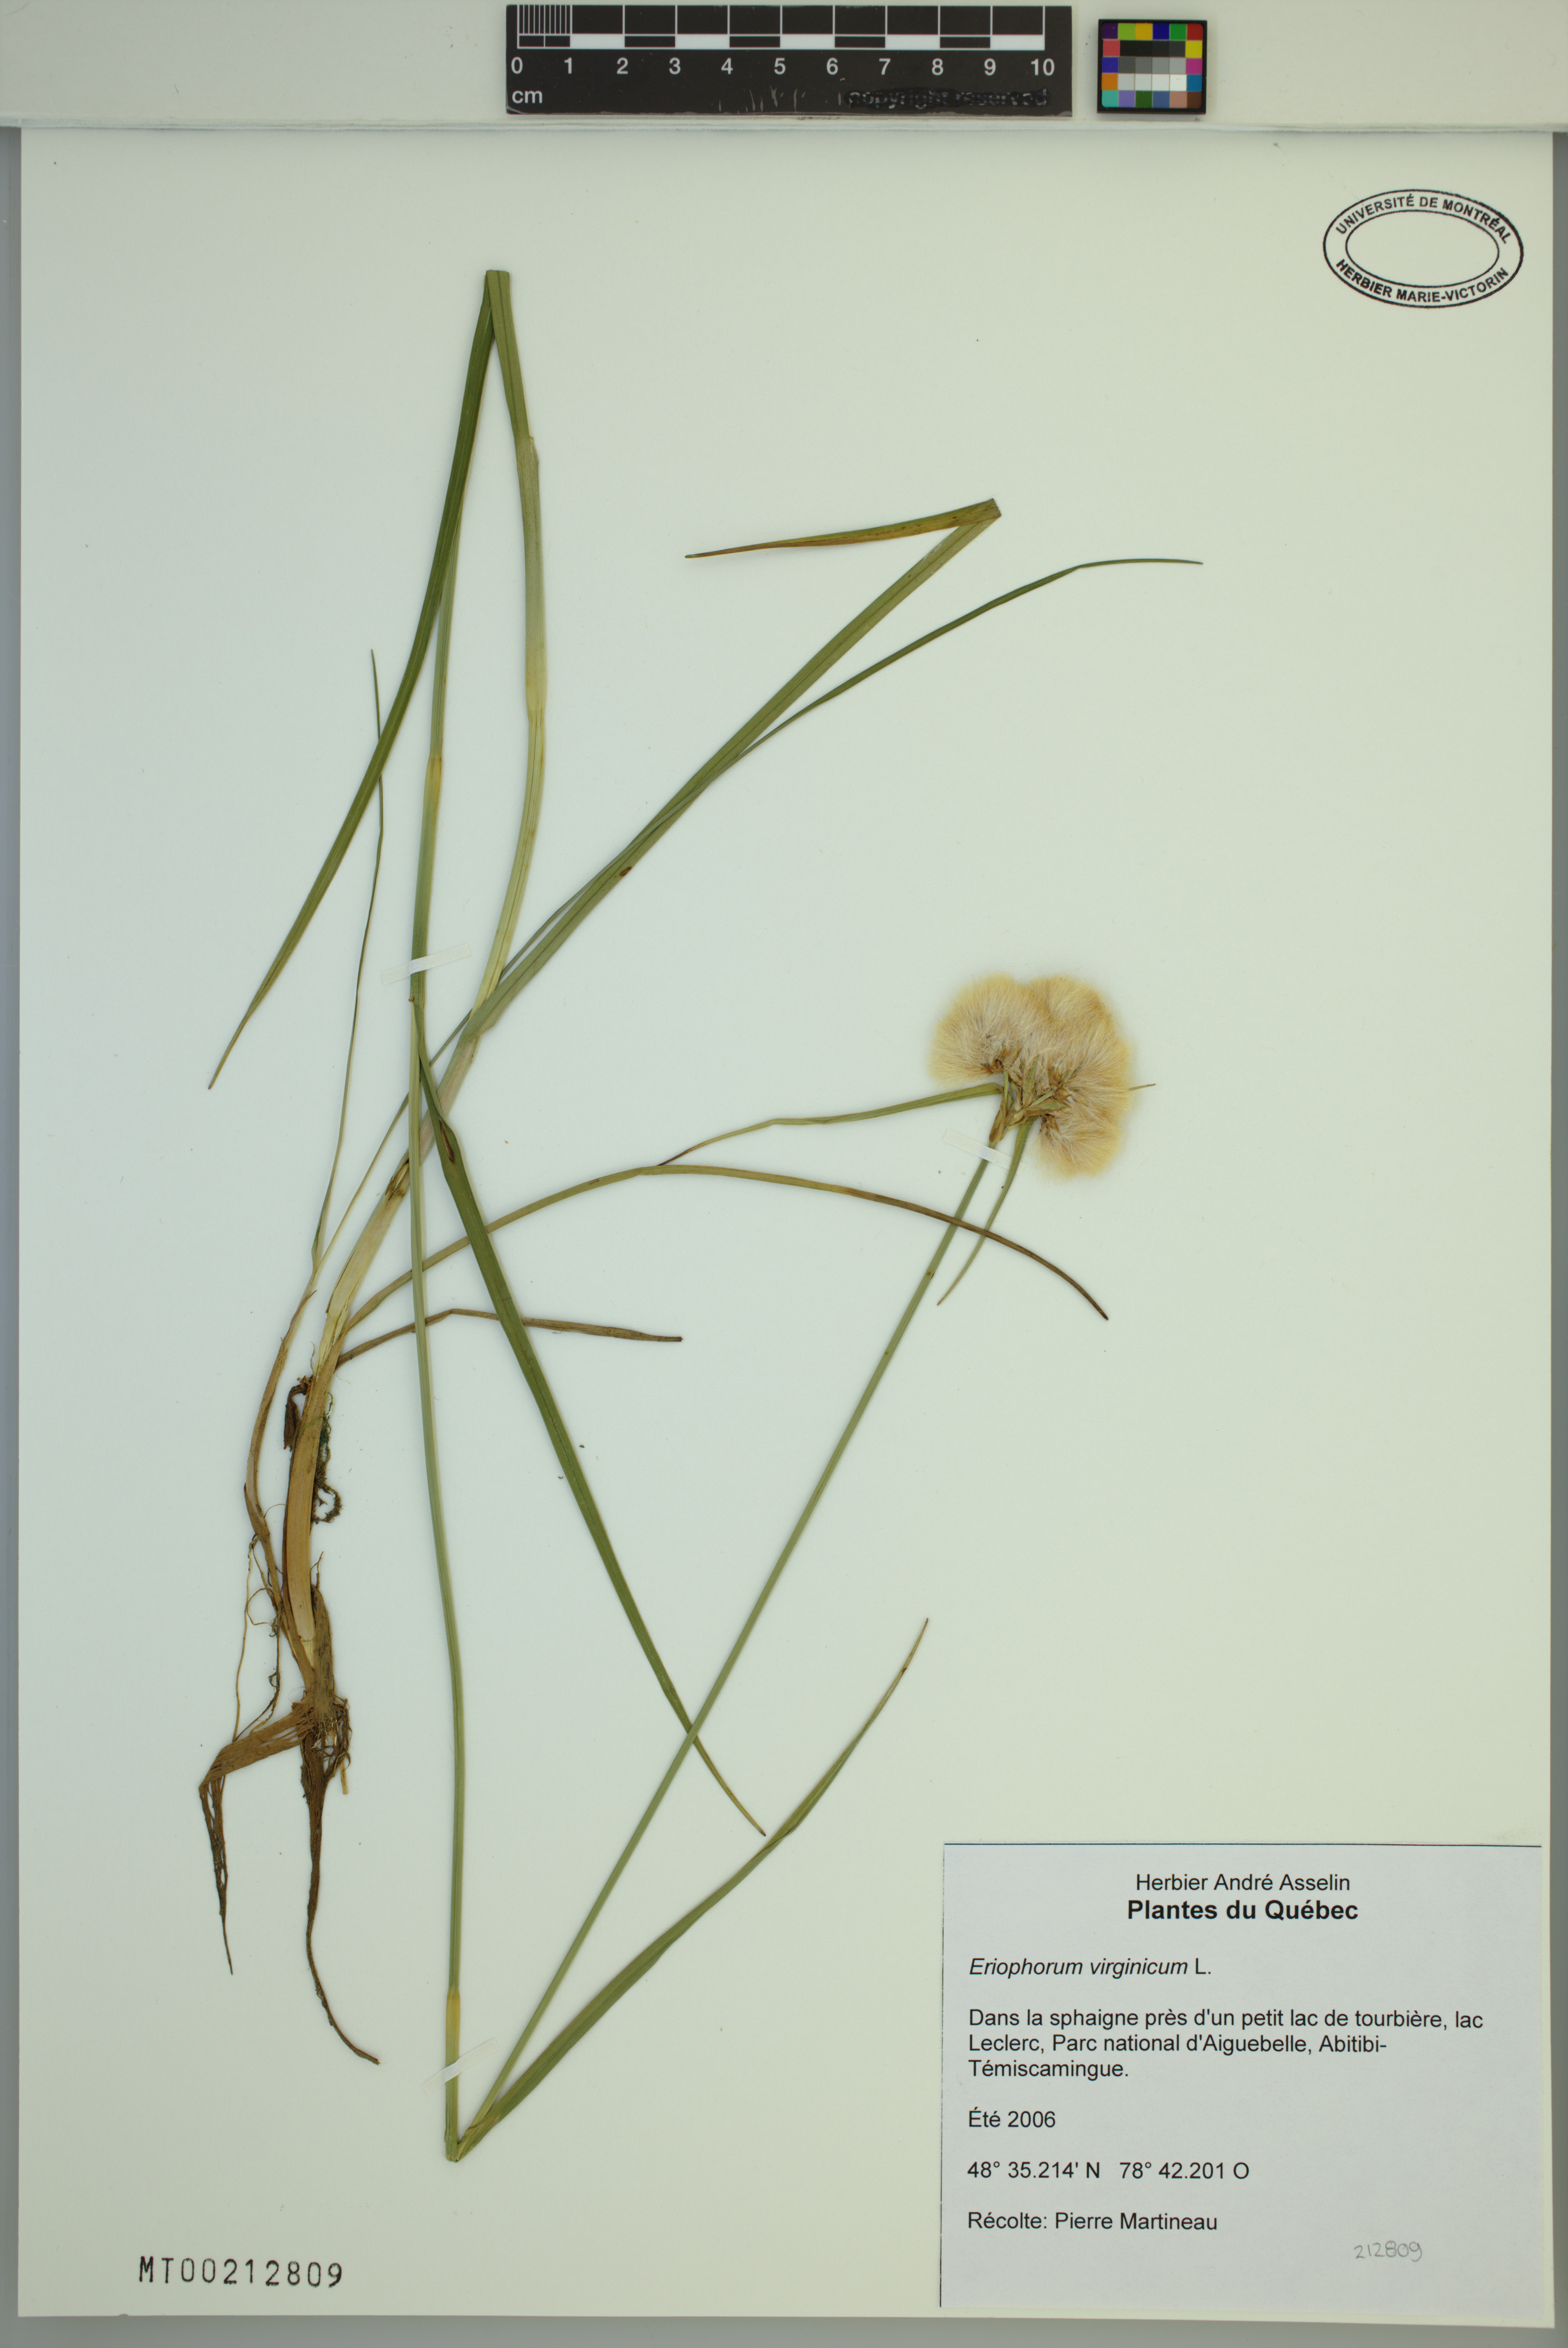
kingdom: Plantae
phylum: Tracheophyta
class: Liliopsida
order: Poales
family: Cyperaceae
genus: Eriophorum
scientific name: Eriophorum virginicum
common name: Tawny cottongrass
